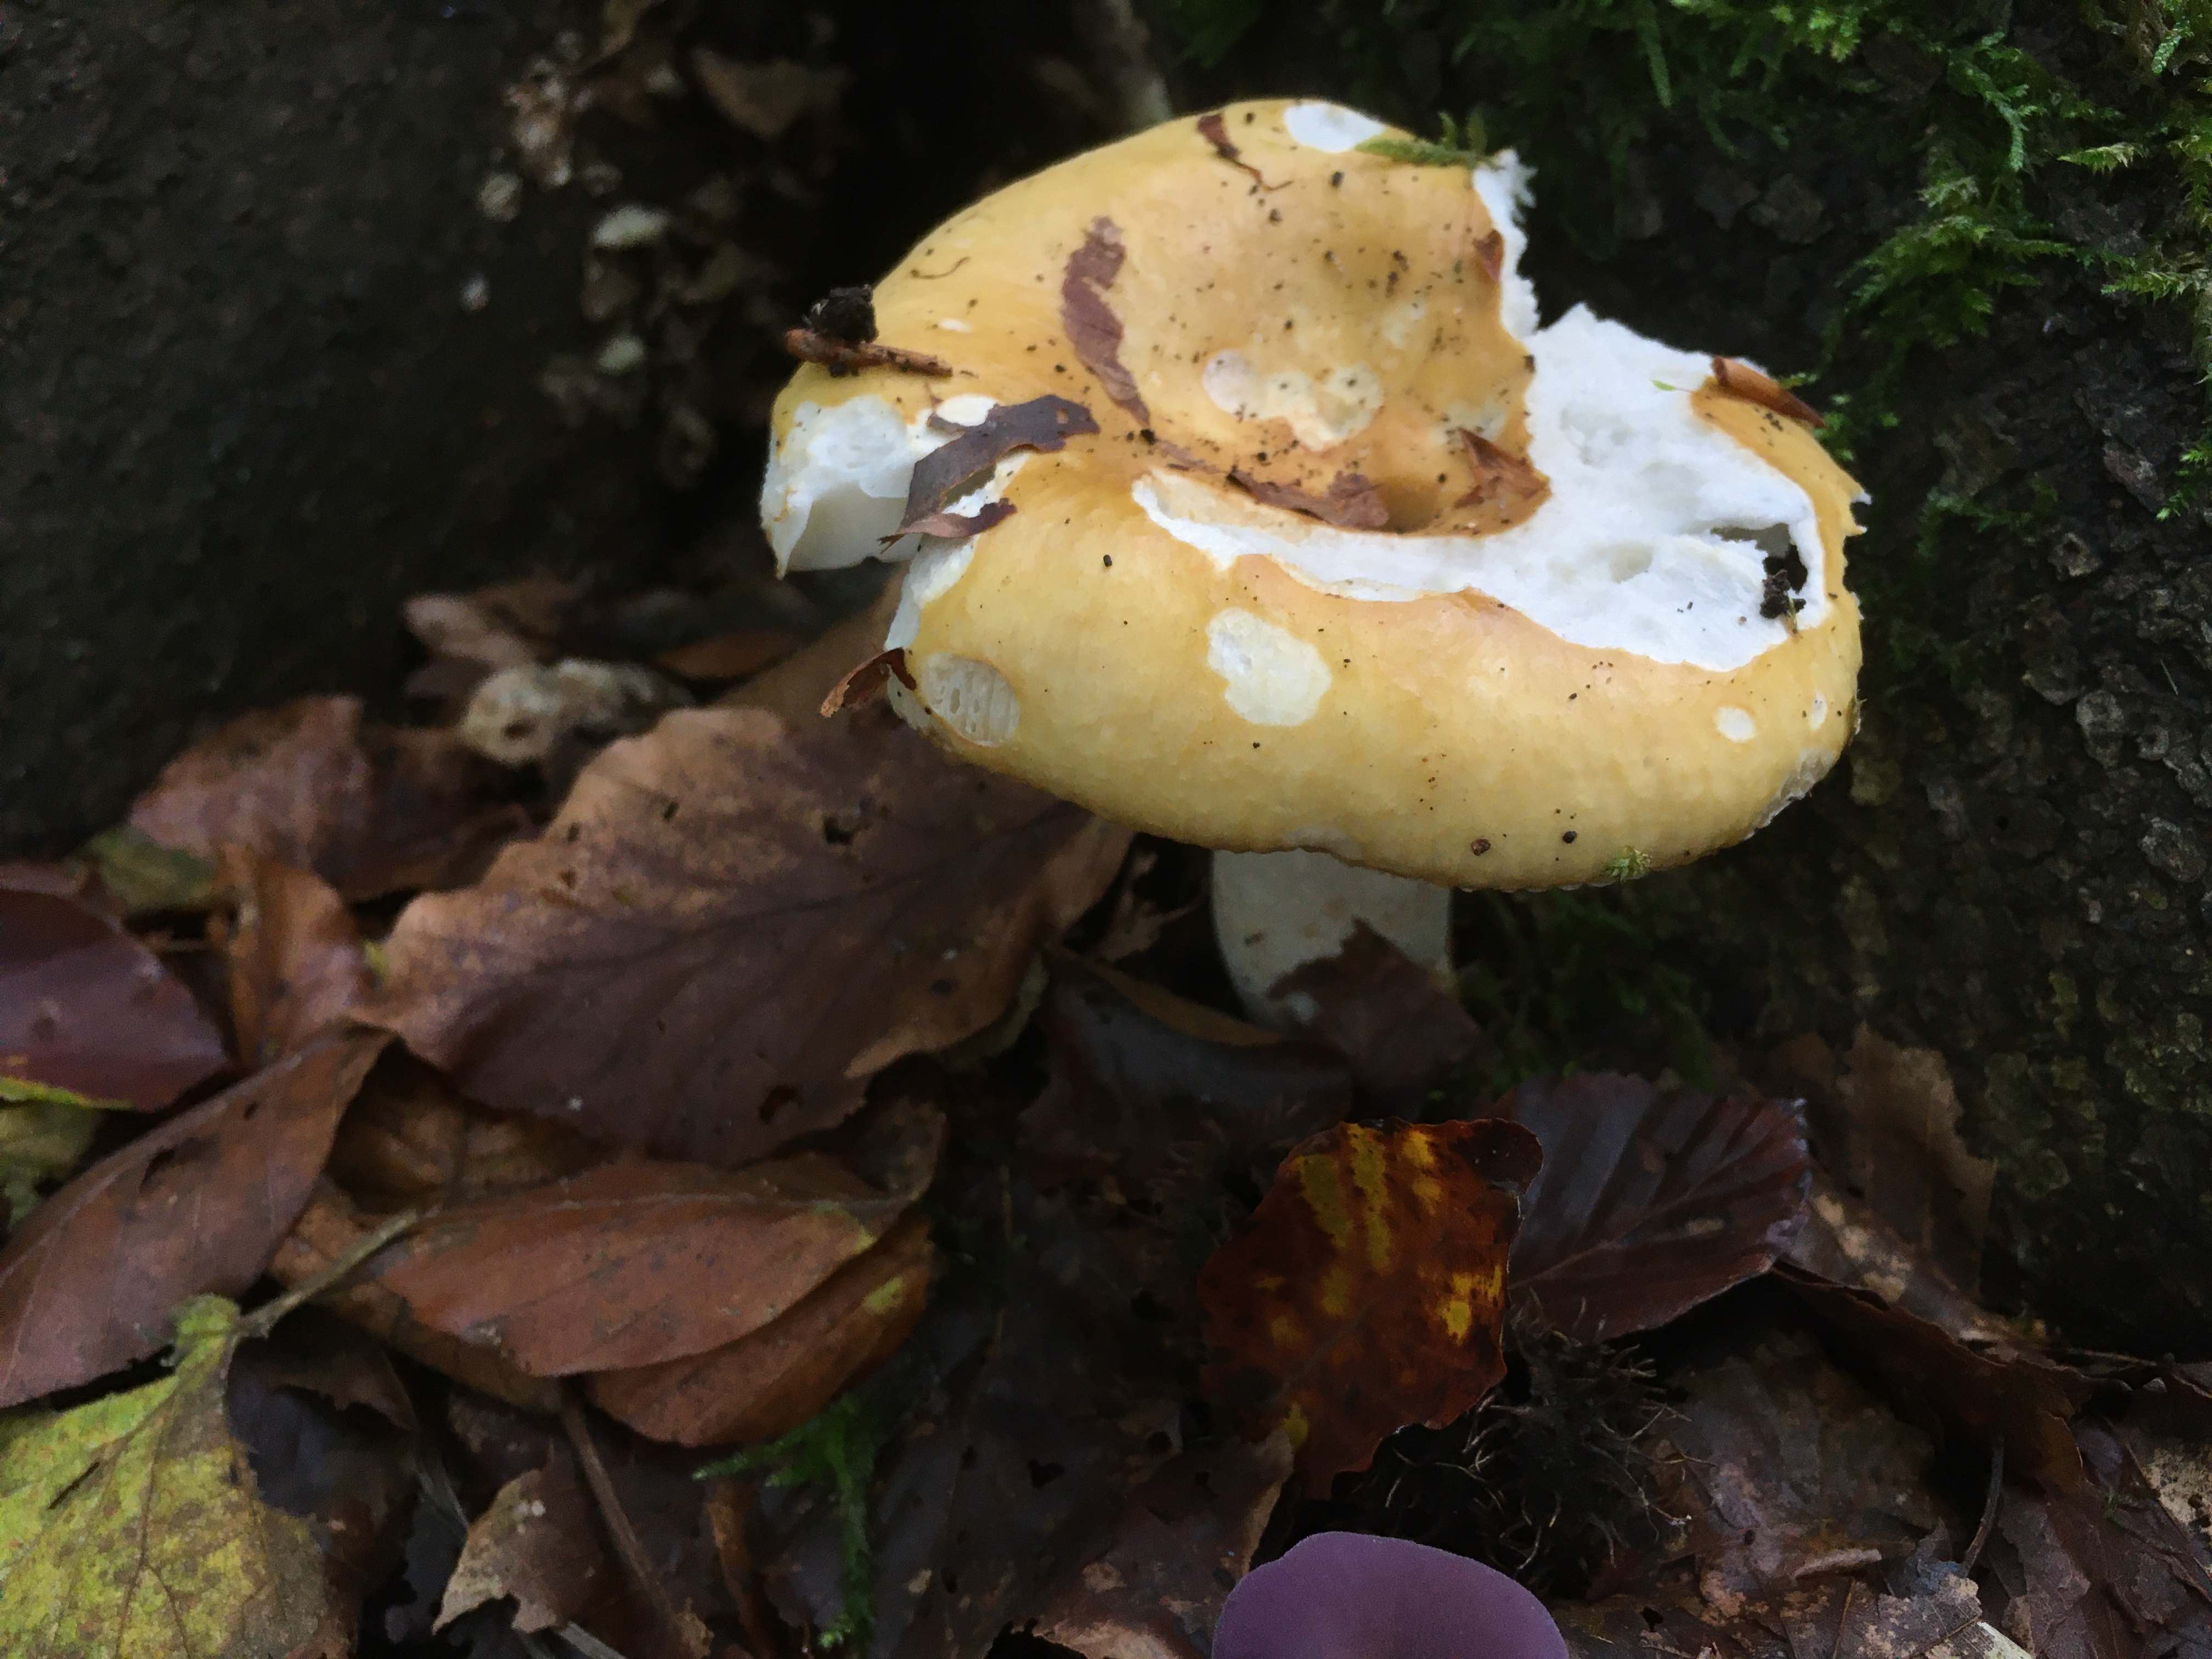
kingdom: Fungi
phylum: Basidiomycota
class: Agaricomycetes
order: Russulales
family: Russulaceae
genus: Russula
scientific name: Russula ochroleuca
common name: okkergul skørhat
